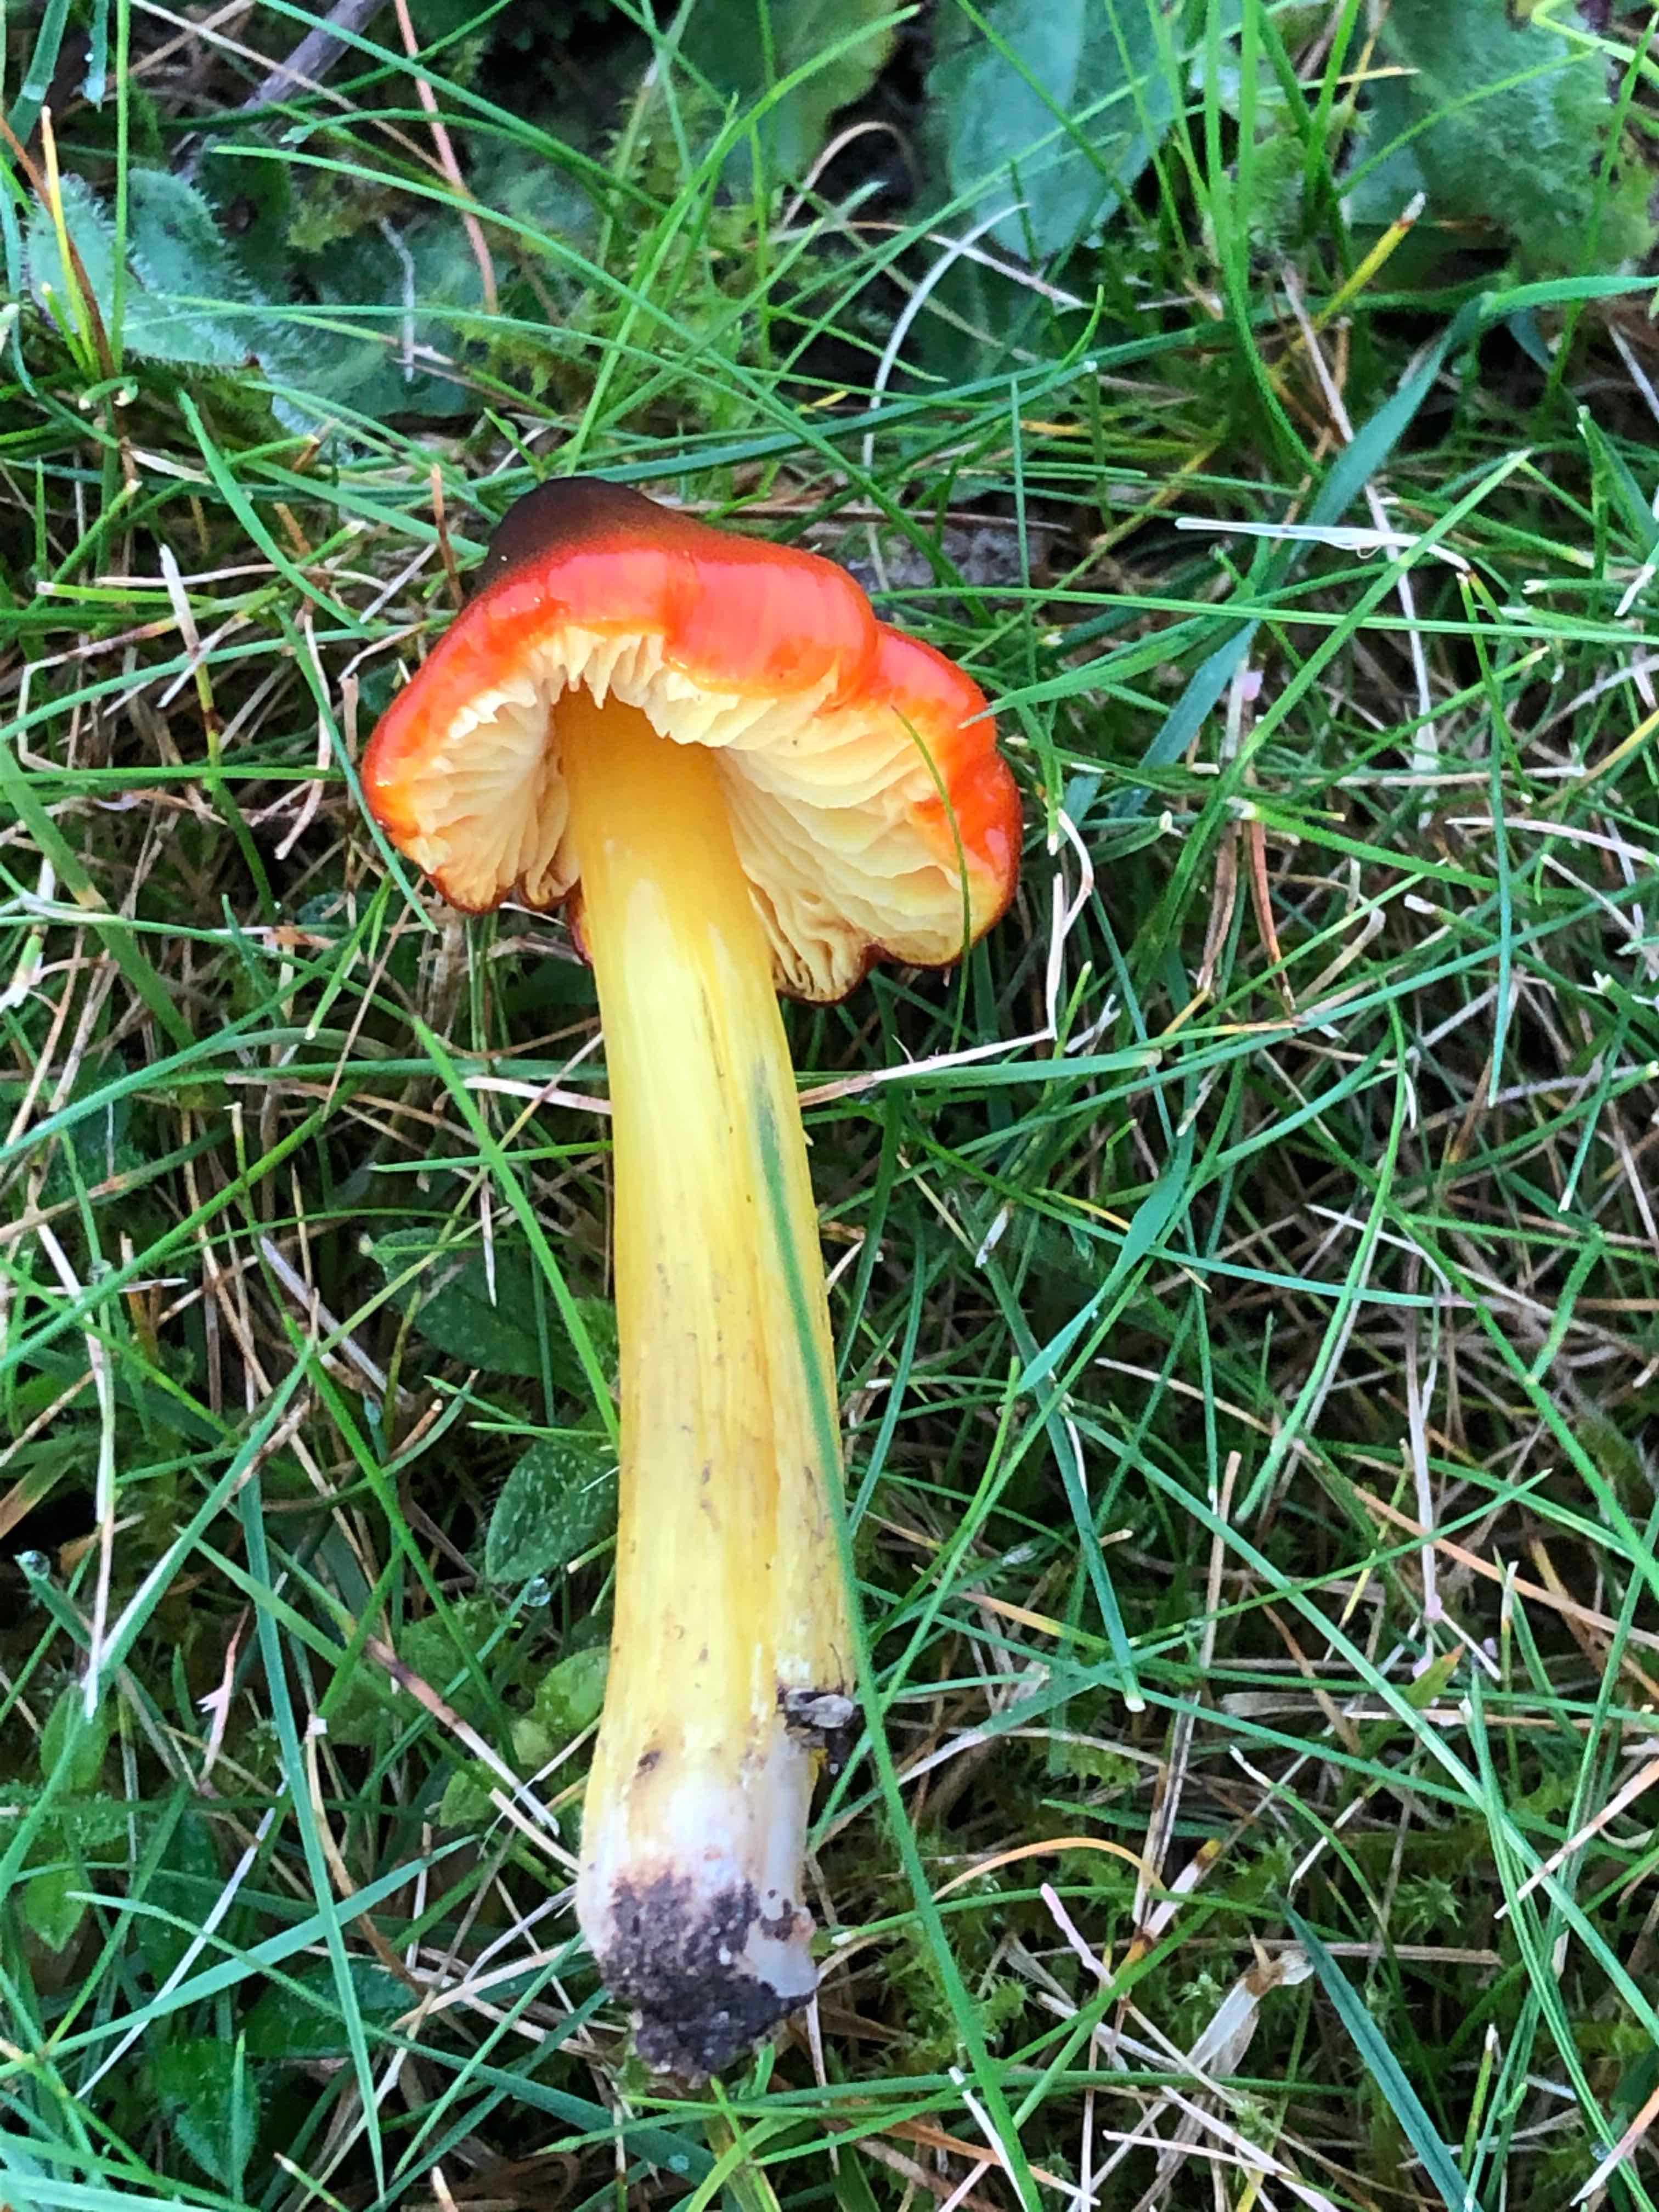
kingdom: Fungi
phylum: Basidiomycota
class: Agaricomycetes
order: Agaricales
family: Hygrophoraceae
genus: Hygrocybe
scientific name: Hygrocybe conica
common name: kegle-vokshat
